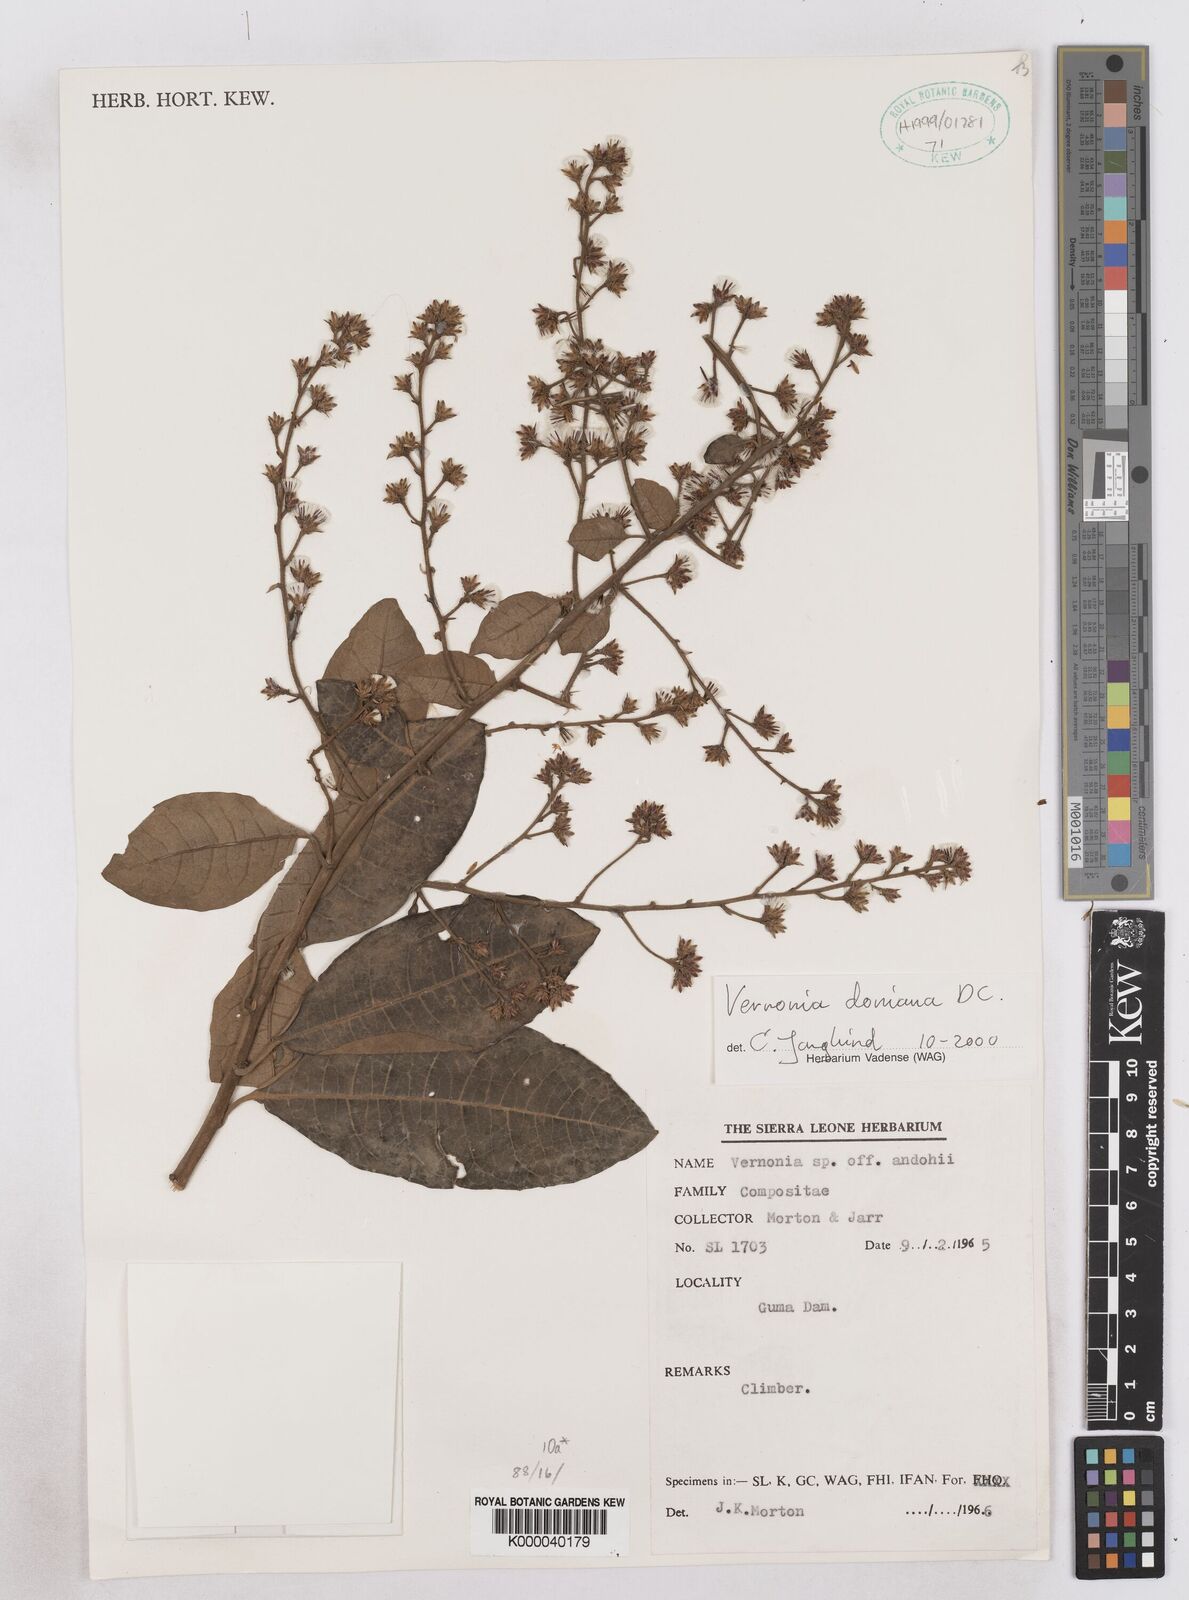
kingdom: Plantae
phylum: Tracheophyta
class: Magnoliopsida
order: Asterales
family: Asteraceae
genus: Vernonia
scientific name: Vernonia
